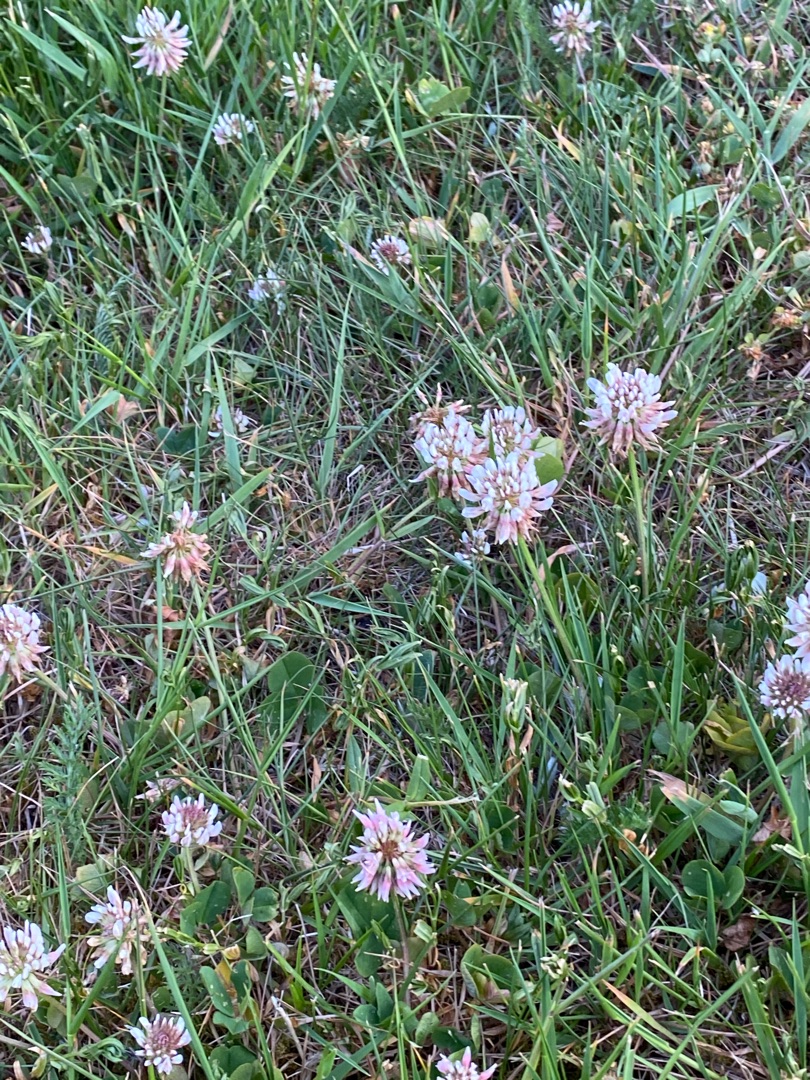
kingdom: Plantae
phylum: Tracheophyta
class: Magnoliopsida
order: Fabales
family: Fabaceae
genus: Trifolium
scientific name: Trifolium repens
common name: Hvid-kløver
